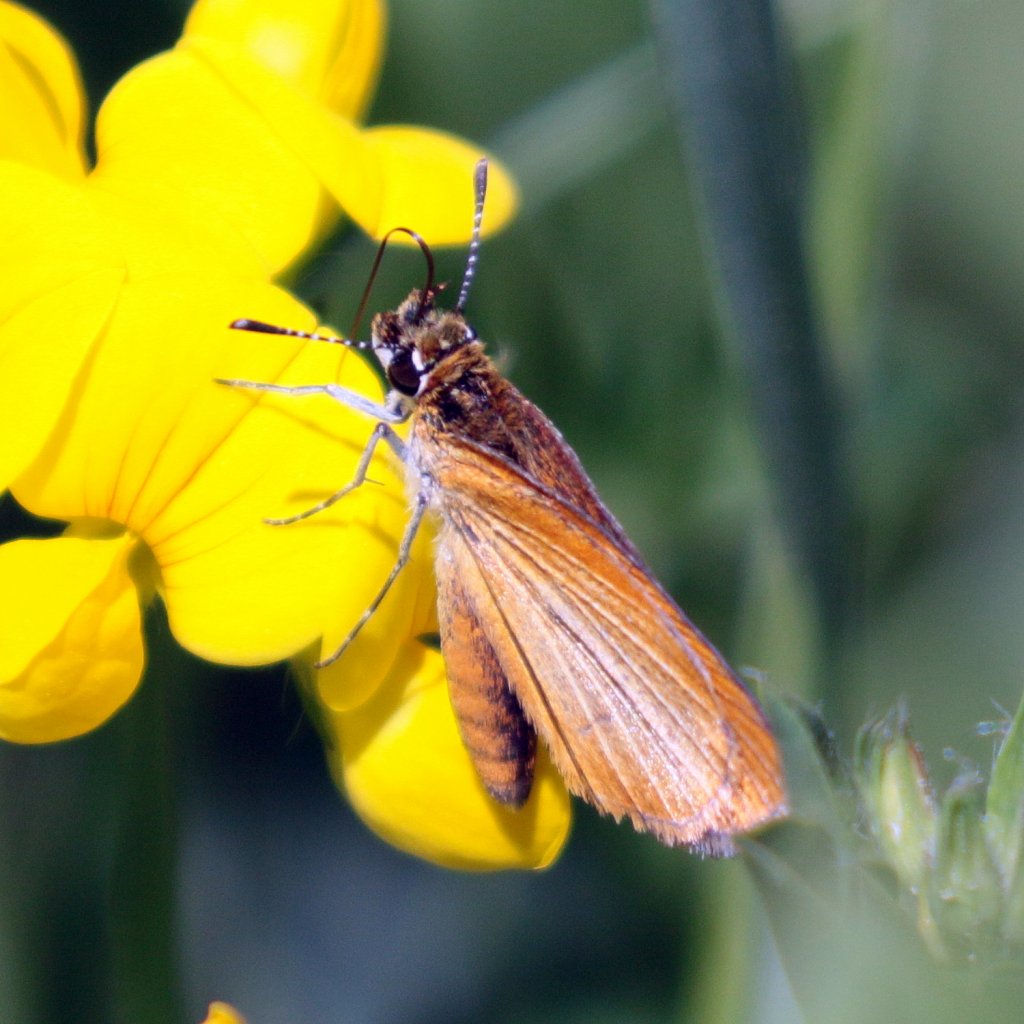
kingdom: Animalia
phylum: Arthropoda
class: Insecta
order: Lepidoptera
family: Hesperiidae
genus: Ancyloxypha
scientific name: Ancyloxypha numitor
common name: Least Skipper
